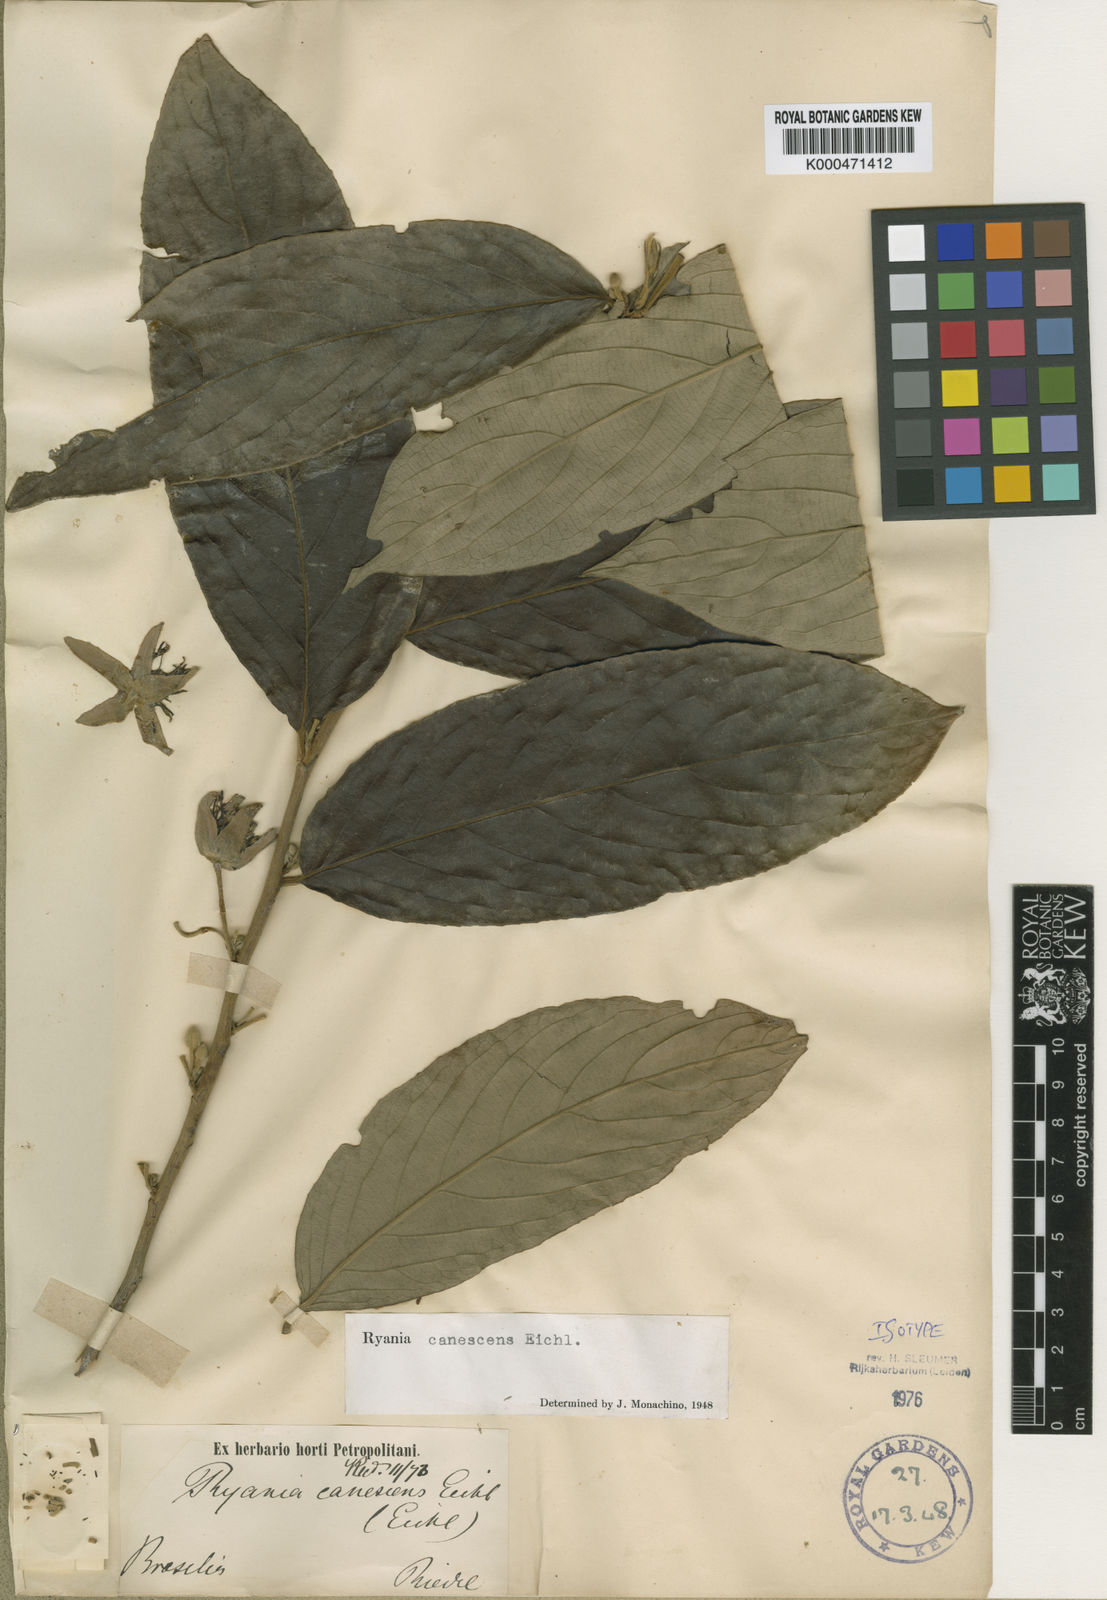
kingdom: Plantae
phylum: Tracheophyta
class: Magnoliopsida
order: Malpighiales
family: Salicaceae
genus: Ryania
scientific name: Ryania canescens
